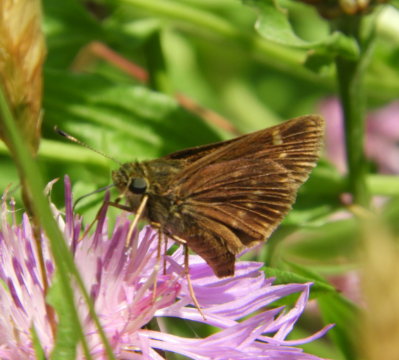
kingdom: Animalia
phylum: Arthropoda
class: Insecta
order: Lepidoptera
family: Hesperiidae
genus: Vernia
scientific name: Vernia verna
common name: Little Glassywing
